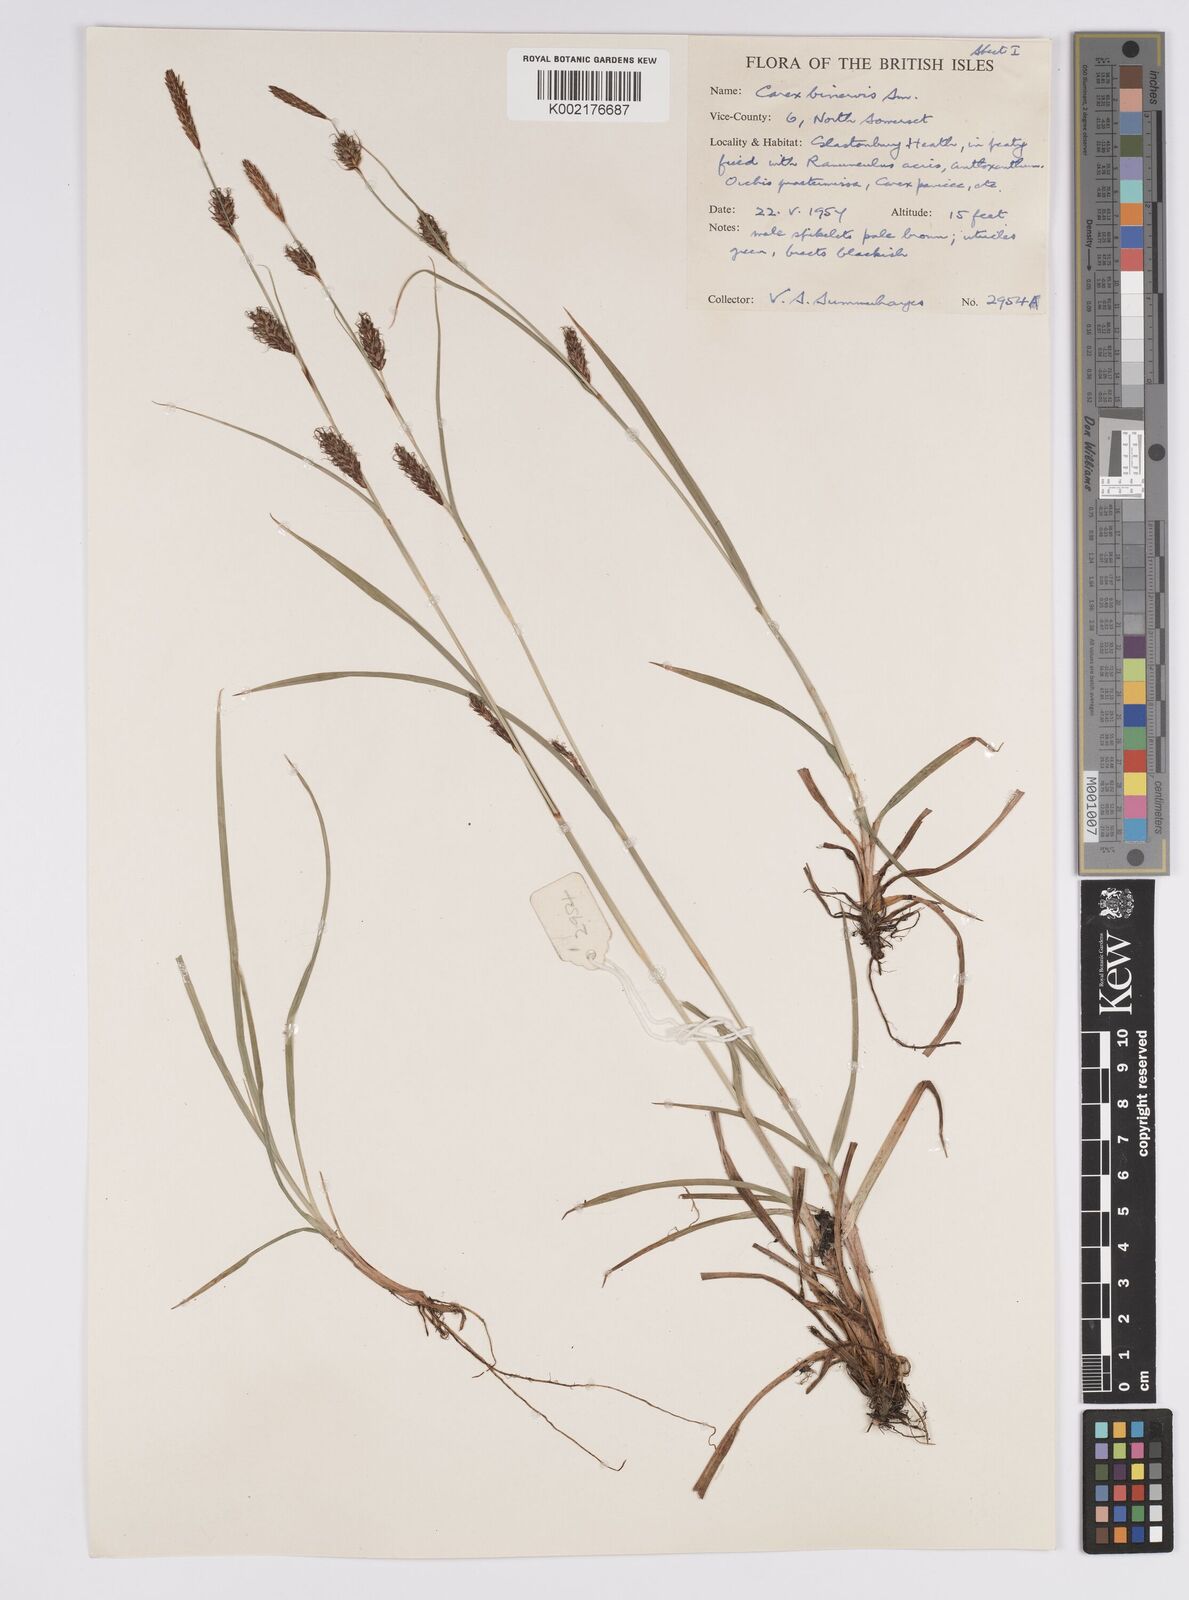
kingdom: Plantae
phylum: Tracheophyta
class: Liliopsida
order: Poales
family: Cyperaceae
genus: Carex
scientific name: Carex binervis
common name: Green-ribbed sedge
